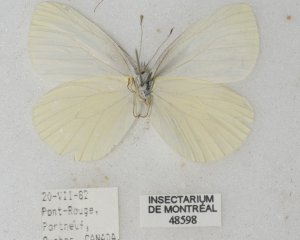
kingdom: Animalia
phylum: Arthropoda
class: Insecta
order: Lepidoptera
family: Pieridae
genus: Pieris
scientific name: Pieris oleracea
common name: Mustard White
